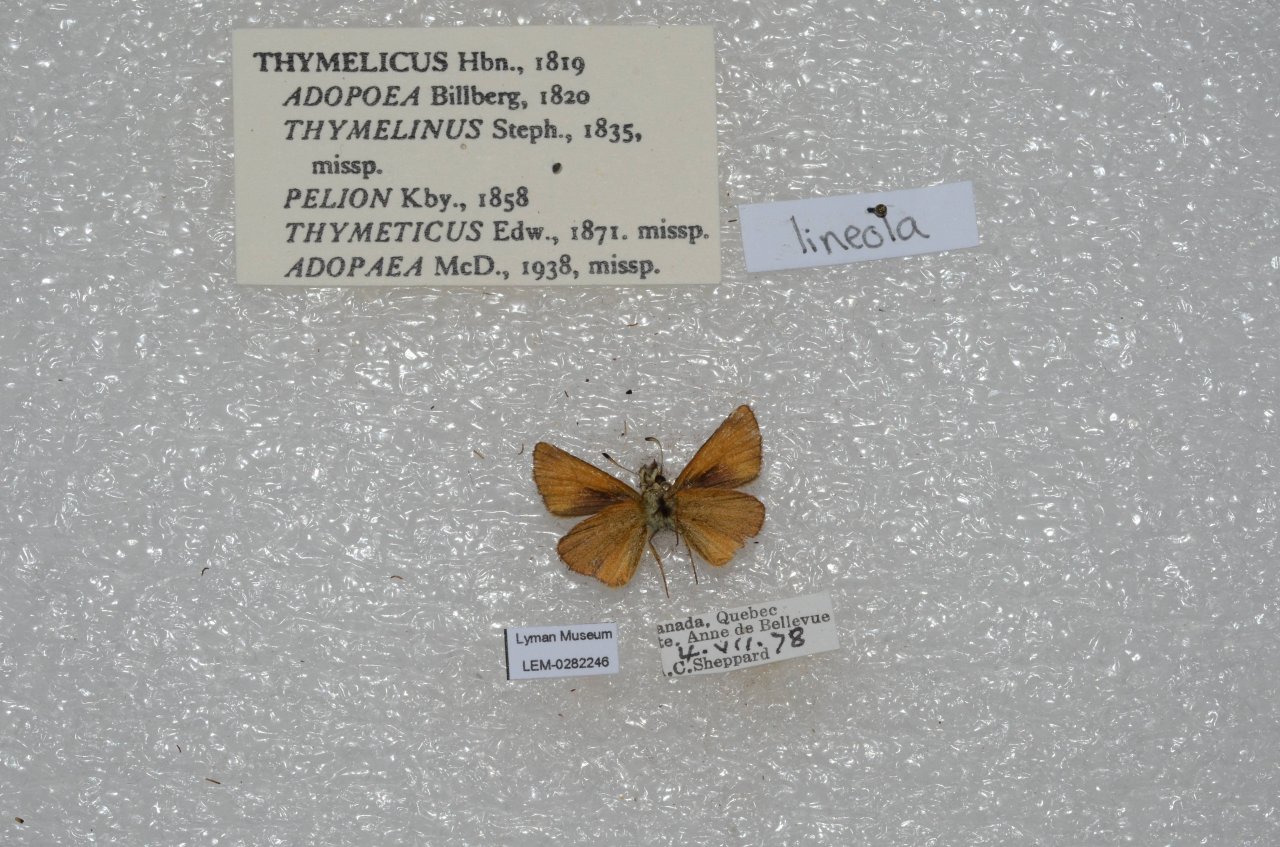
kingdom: Animalia
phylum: Arthropoda
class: Insecta
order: Lepidoptera
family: Hesperiidae
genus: Thymelicus
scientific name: Thymelicus lineola
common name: European Skipper
